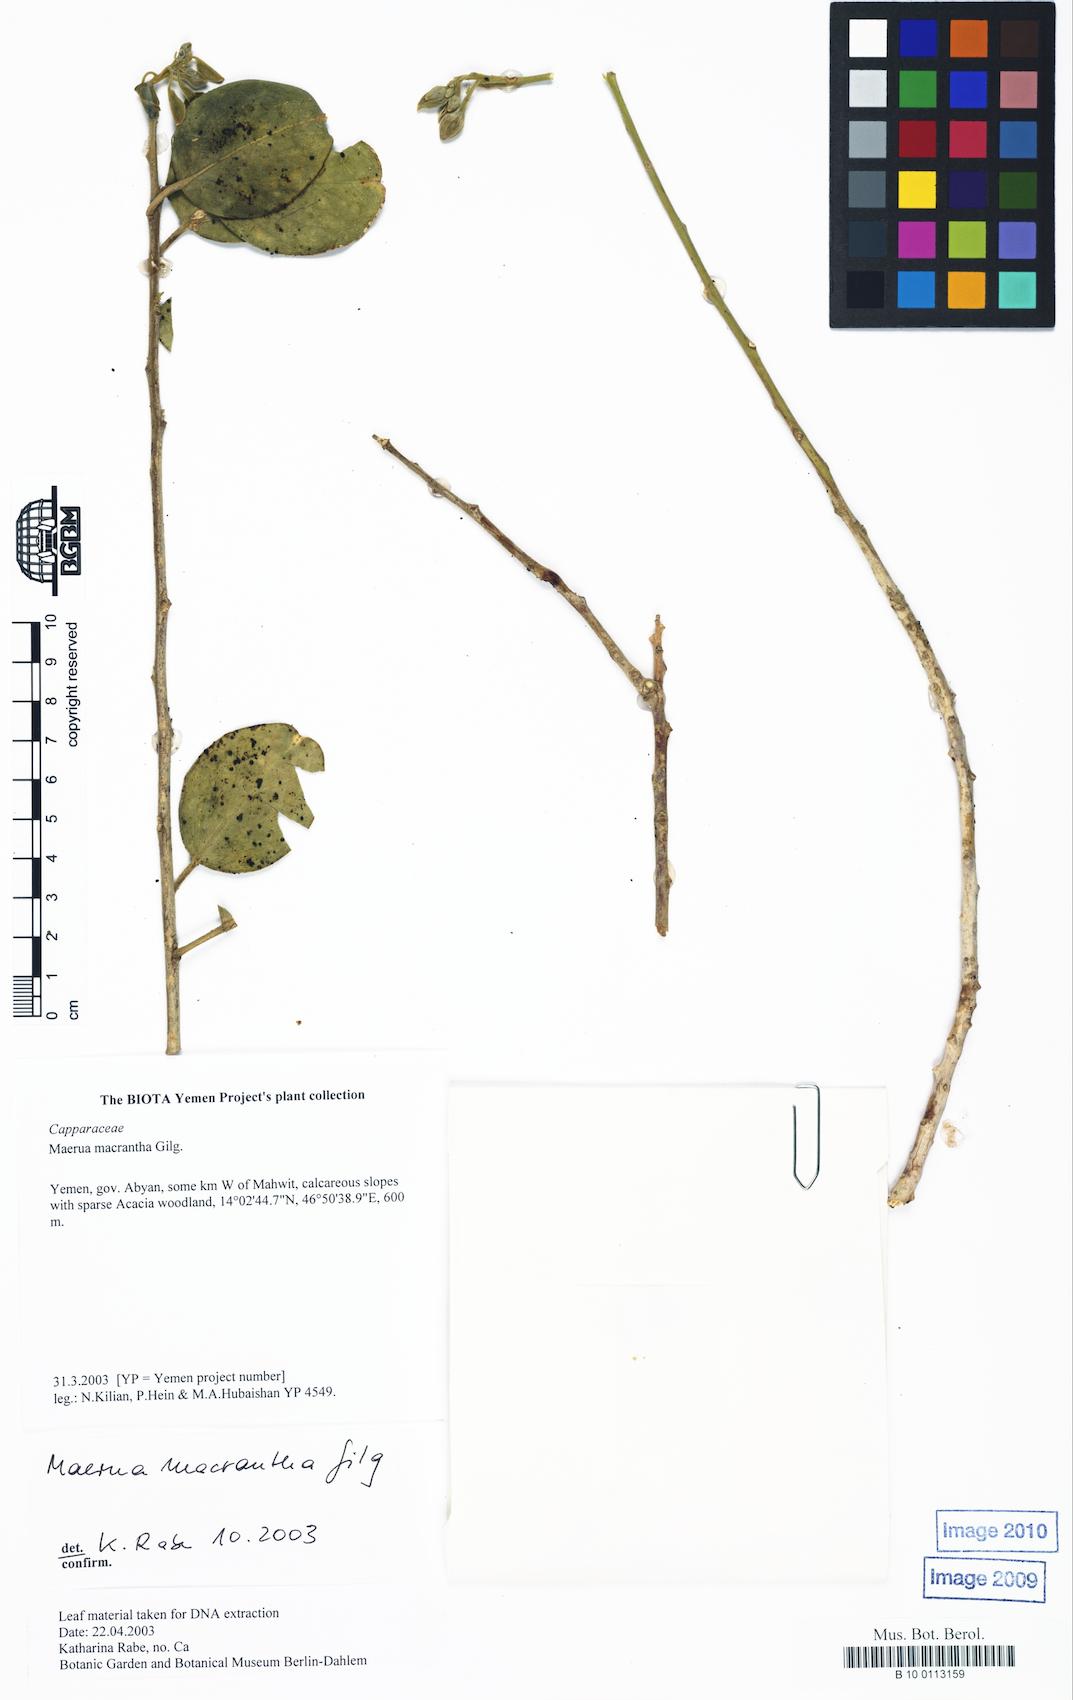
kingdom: Plantae
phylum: Tracheophyta
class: Magnoliopsida
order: Brassicales
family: Capparaceae
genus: Maerua
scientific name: Maerua macrantha
